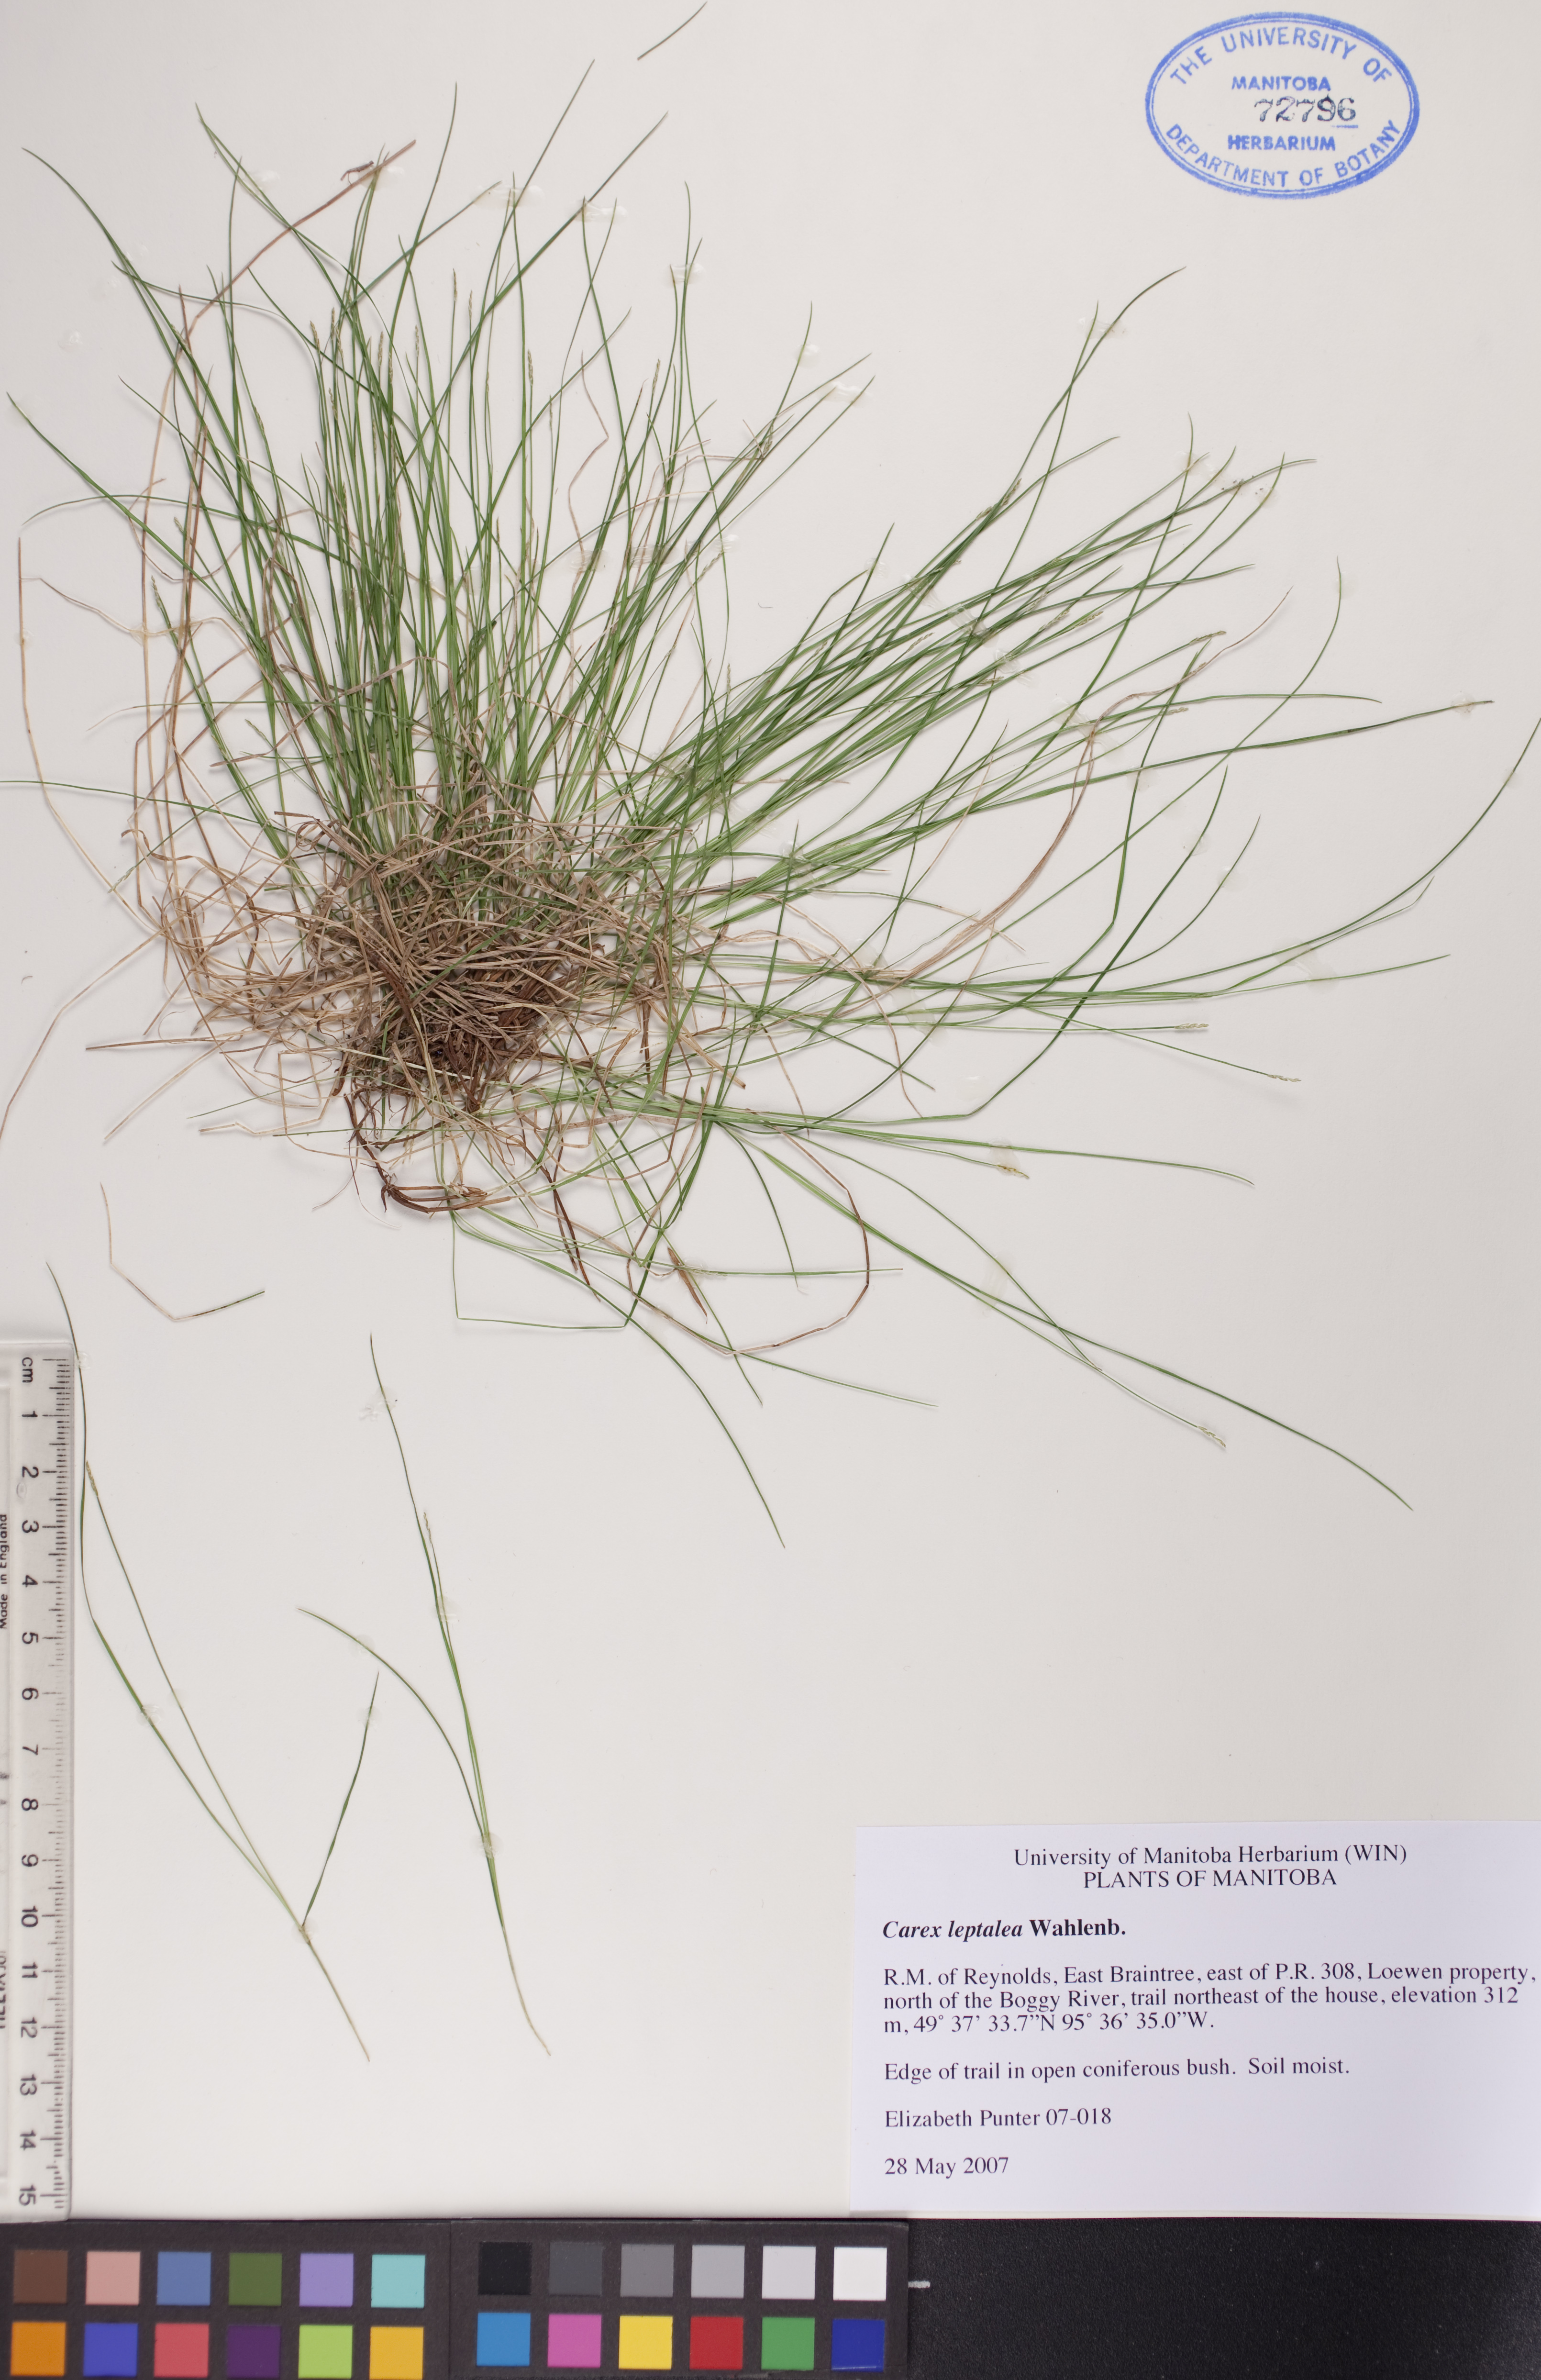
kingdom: Plantae
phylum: Tracheophyta
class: Liliopsida
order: Poales
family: Cyperaceae
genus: Carex
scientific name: Carex leptalea
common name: Bristly-stalked sedge
